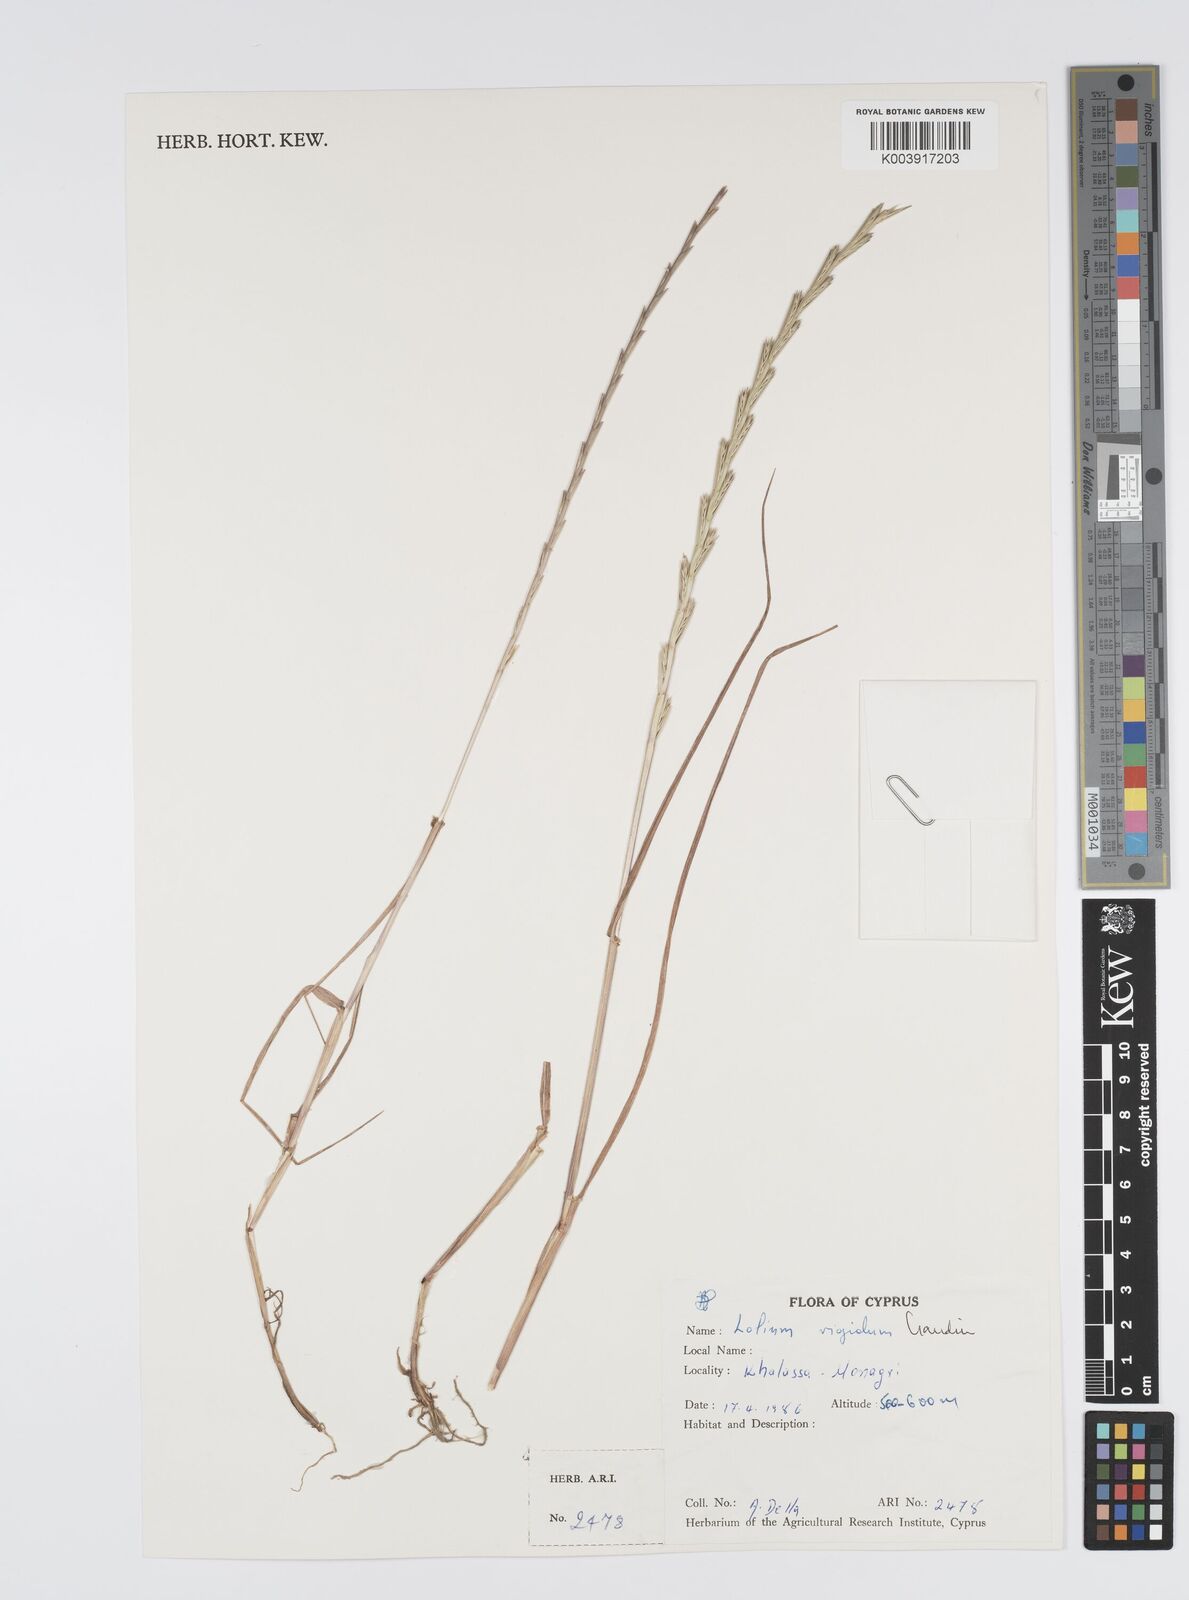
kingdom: Plantae
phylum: Tracheophyta
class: Liliopsida
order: Poales
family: Poaceae
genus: Lolium
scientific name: Lolium rigidum
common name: Wimmera ryegrass
